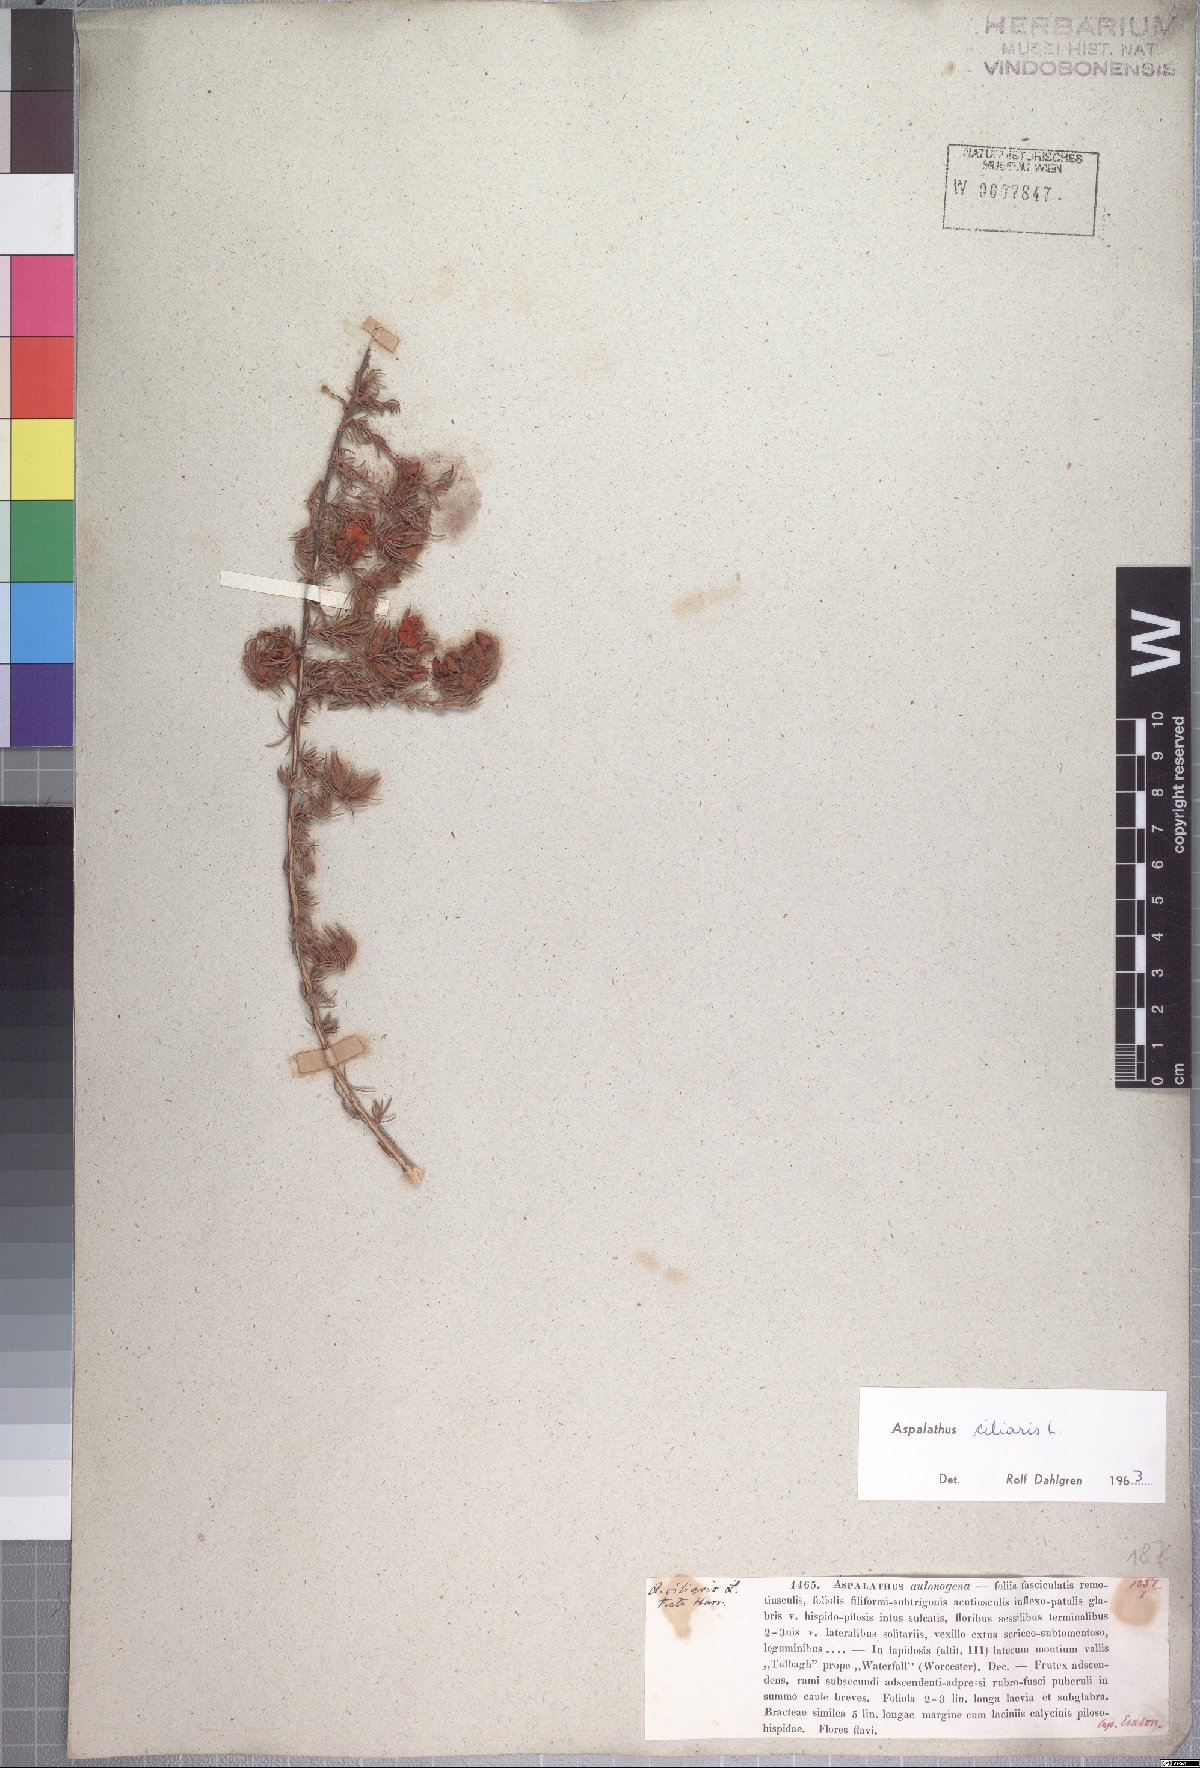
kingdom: Plantae
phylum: Tracheophyta
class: Magnoliopsida
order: Fabales
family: Fabaceae
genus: Aspalathus
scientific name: Aspalathus ciliaris
